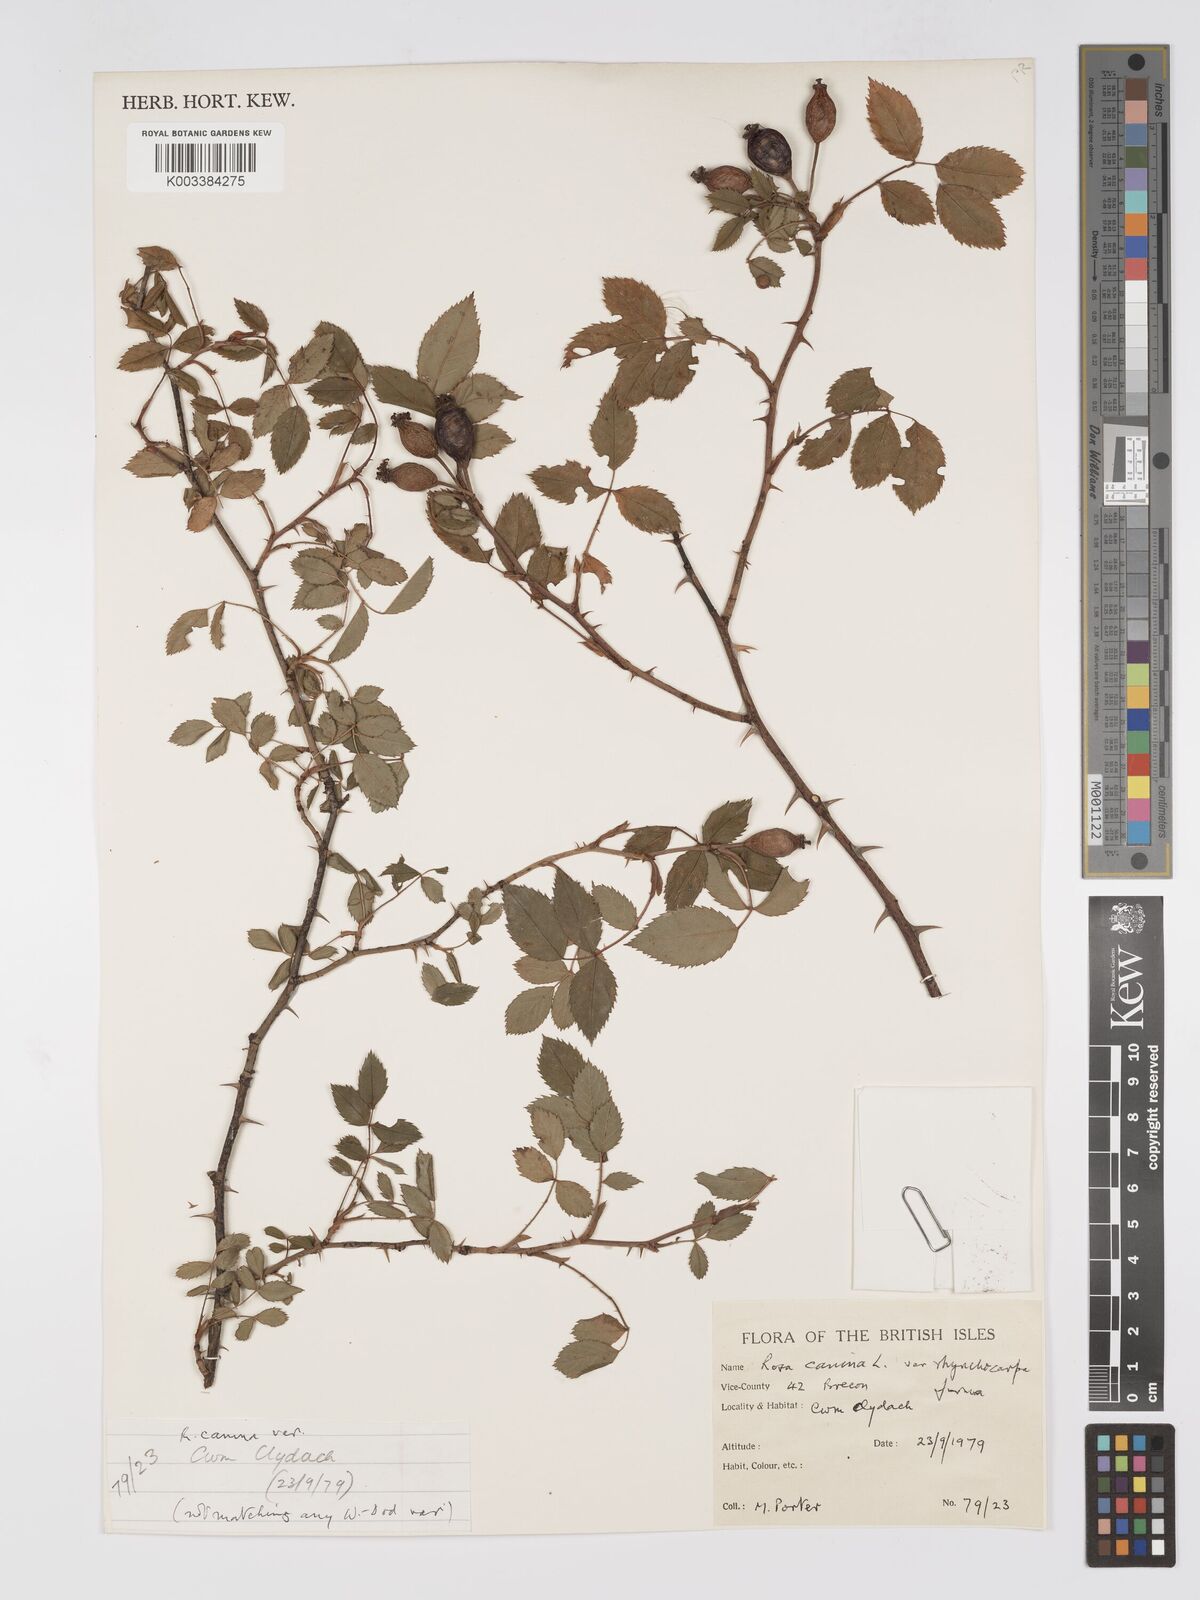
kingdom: Plantae
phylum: Tracheophyta
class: Magnoliopsida
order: Rosales
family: Rosaceae
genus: Rosa
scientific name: Rosa canina
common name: Dog rose
